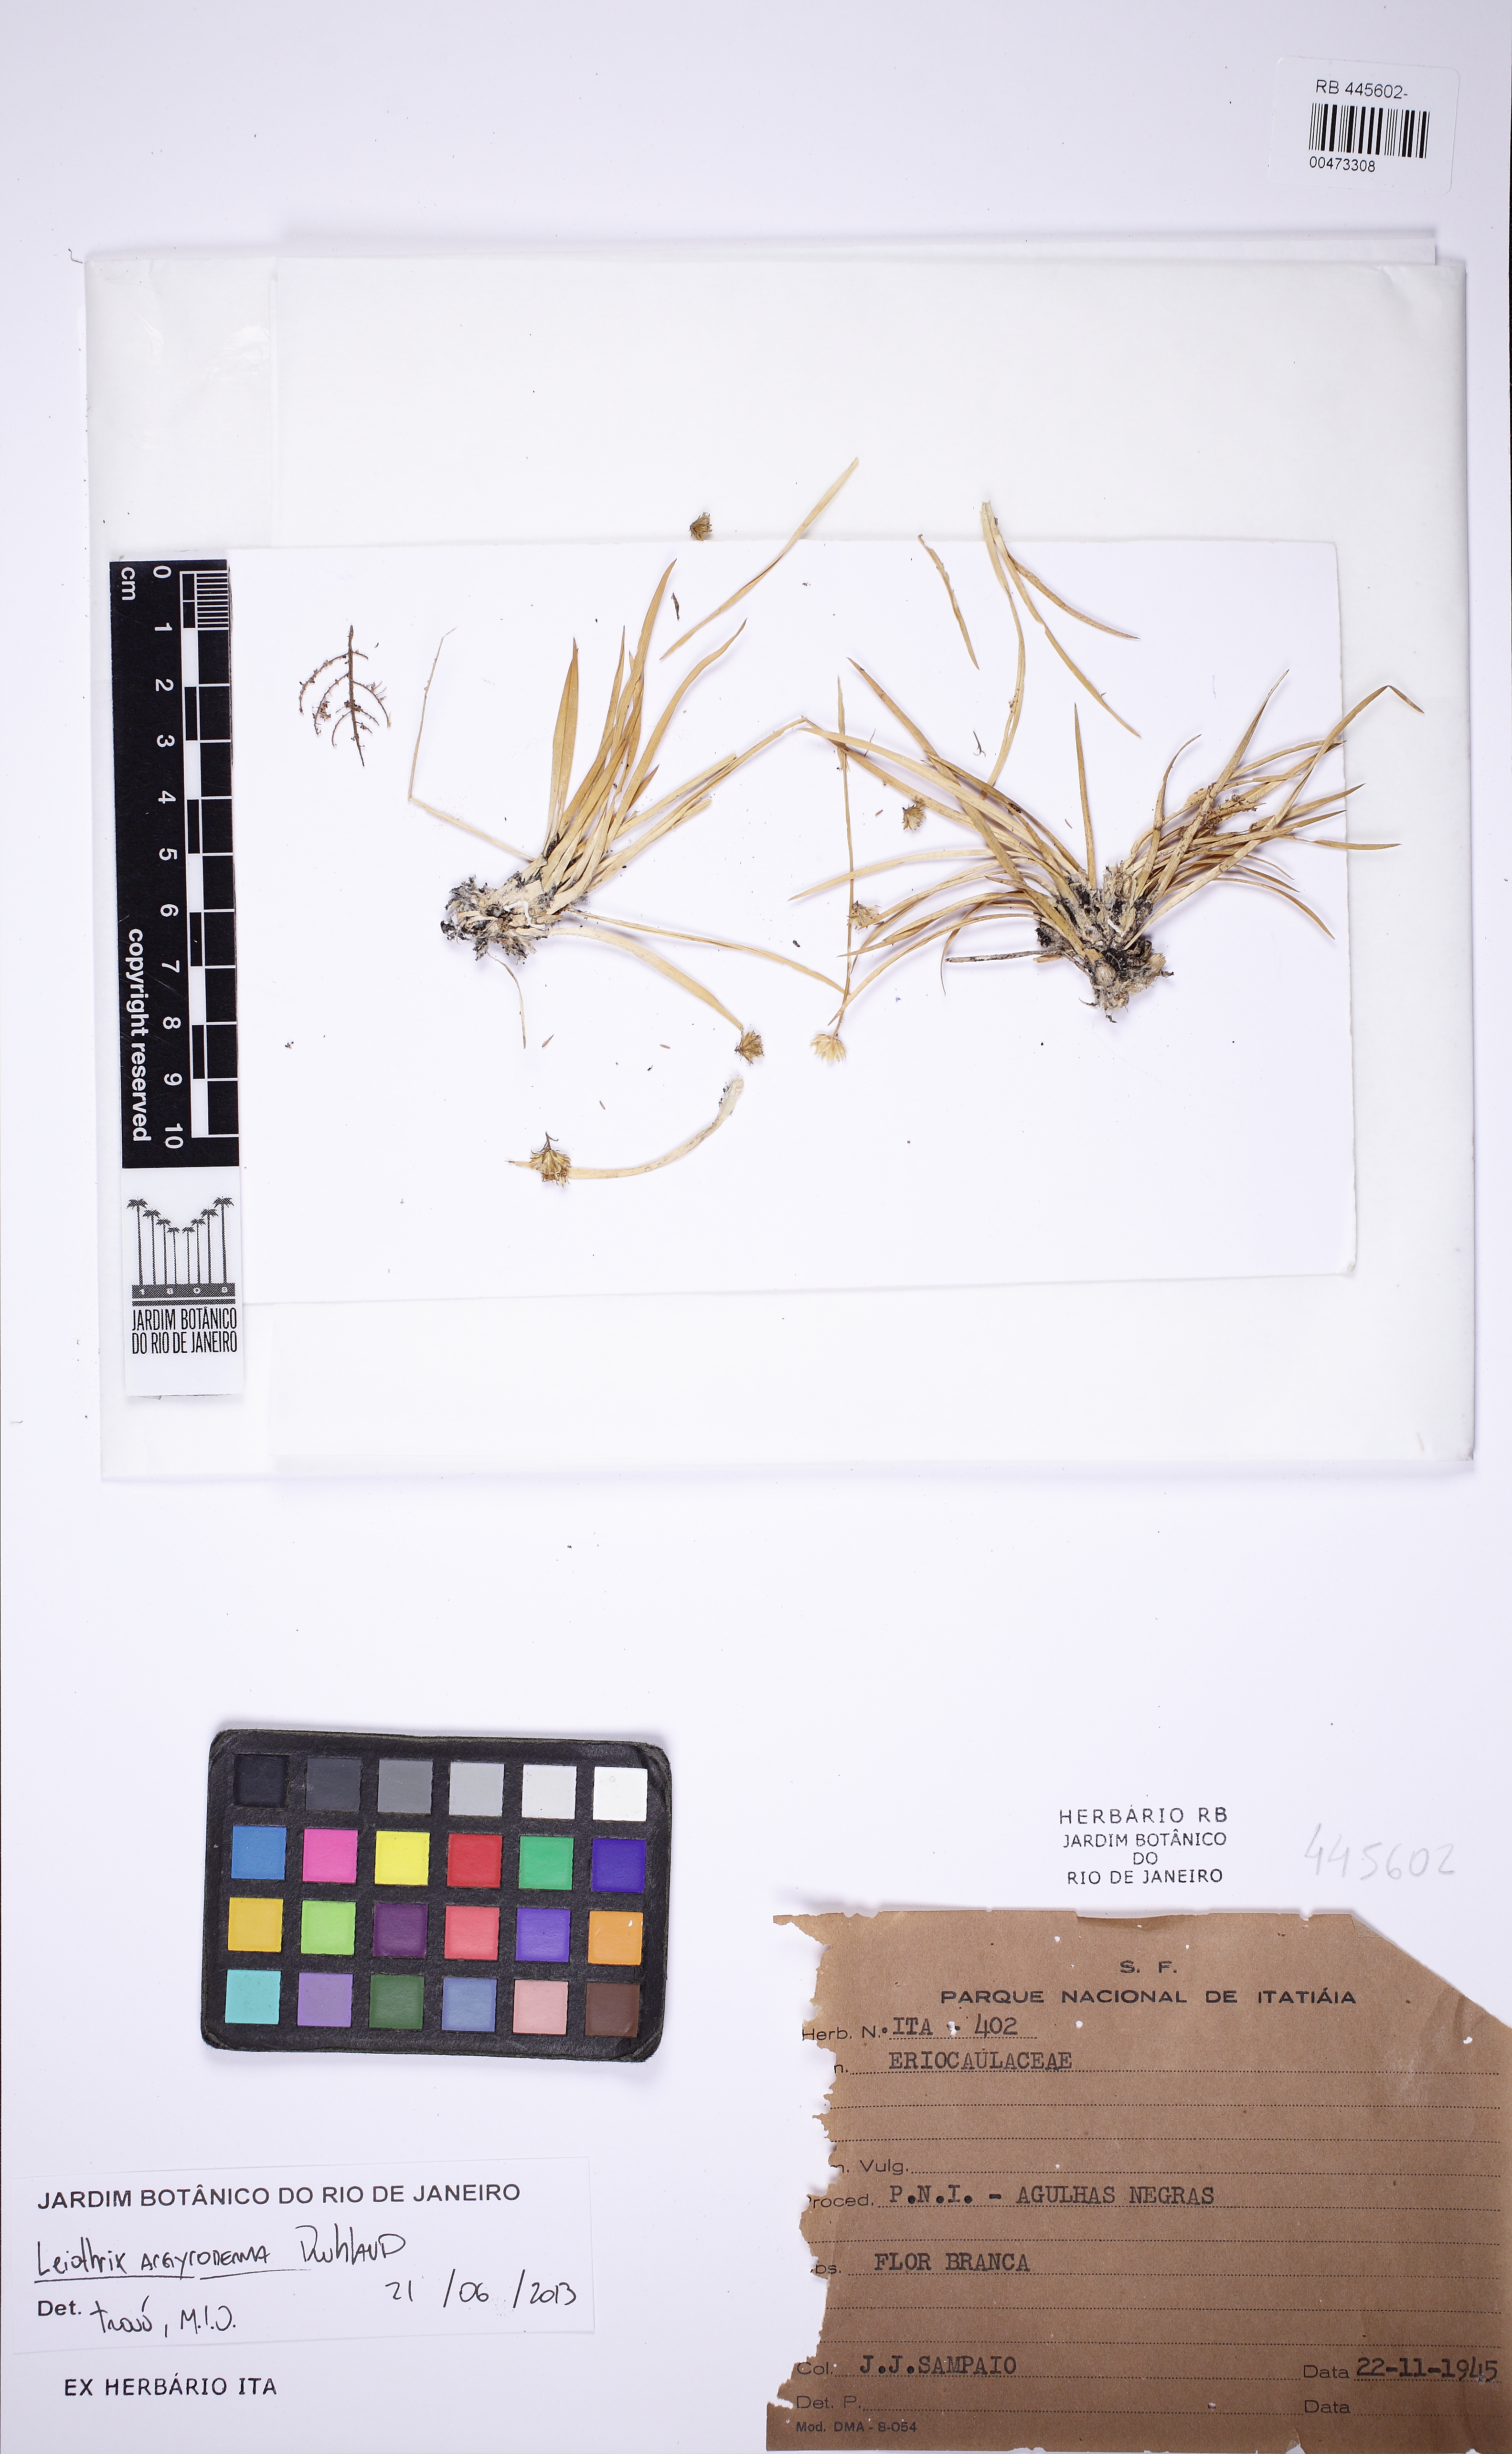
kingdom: Plantae
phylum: Tracheophyta
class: Liliopsida
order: Poales
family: Eriocaulaceae
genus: Leiothrix
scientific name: Leiothrix argyroderma
